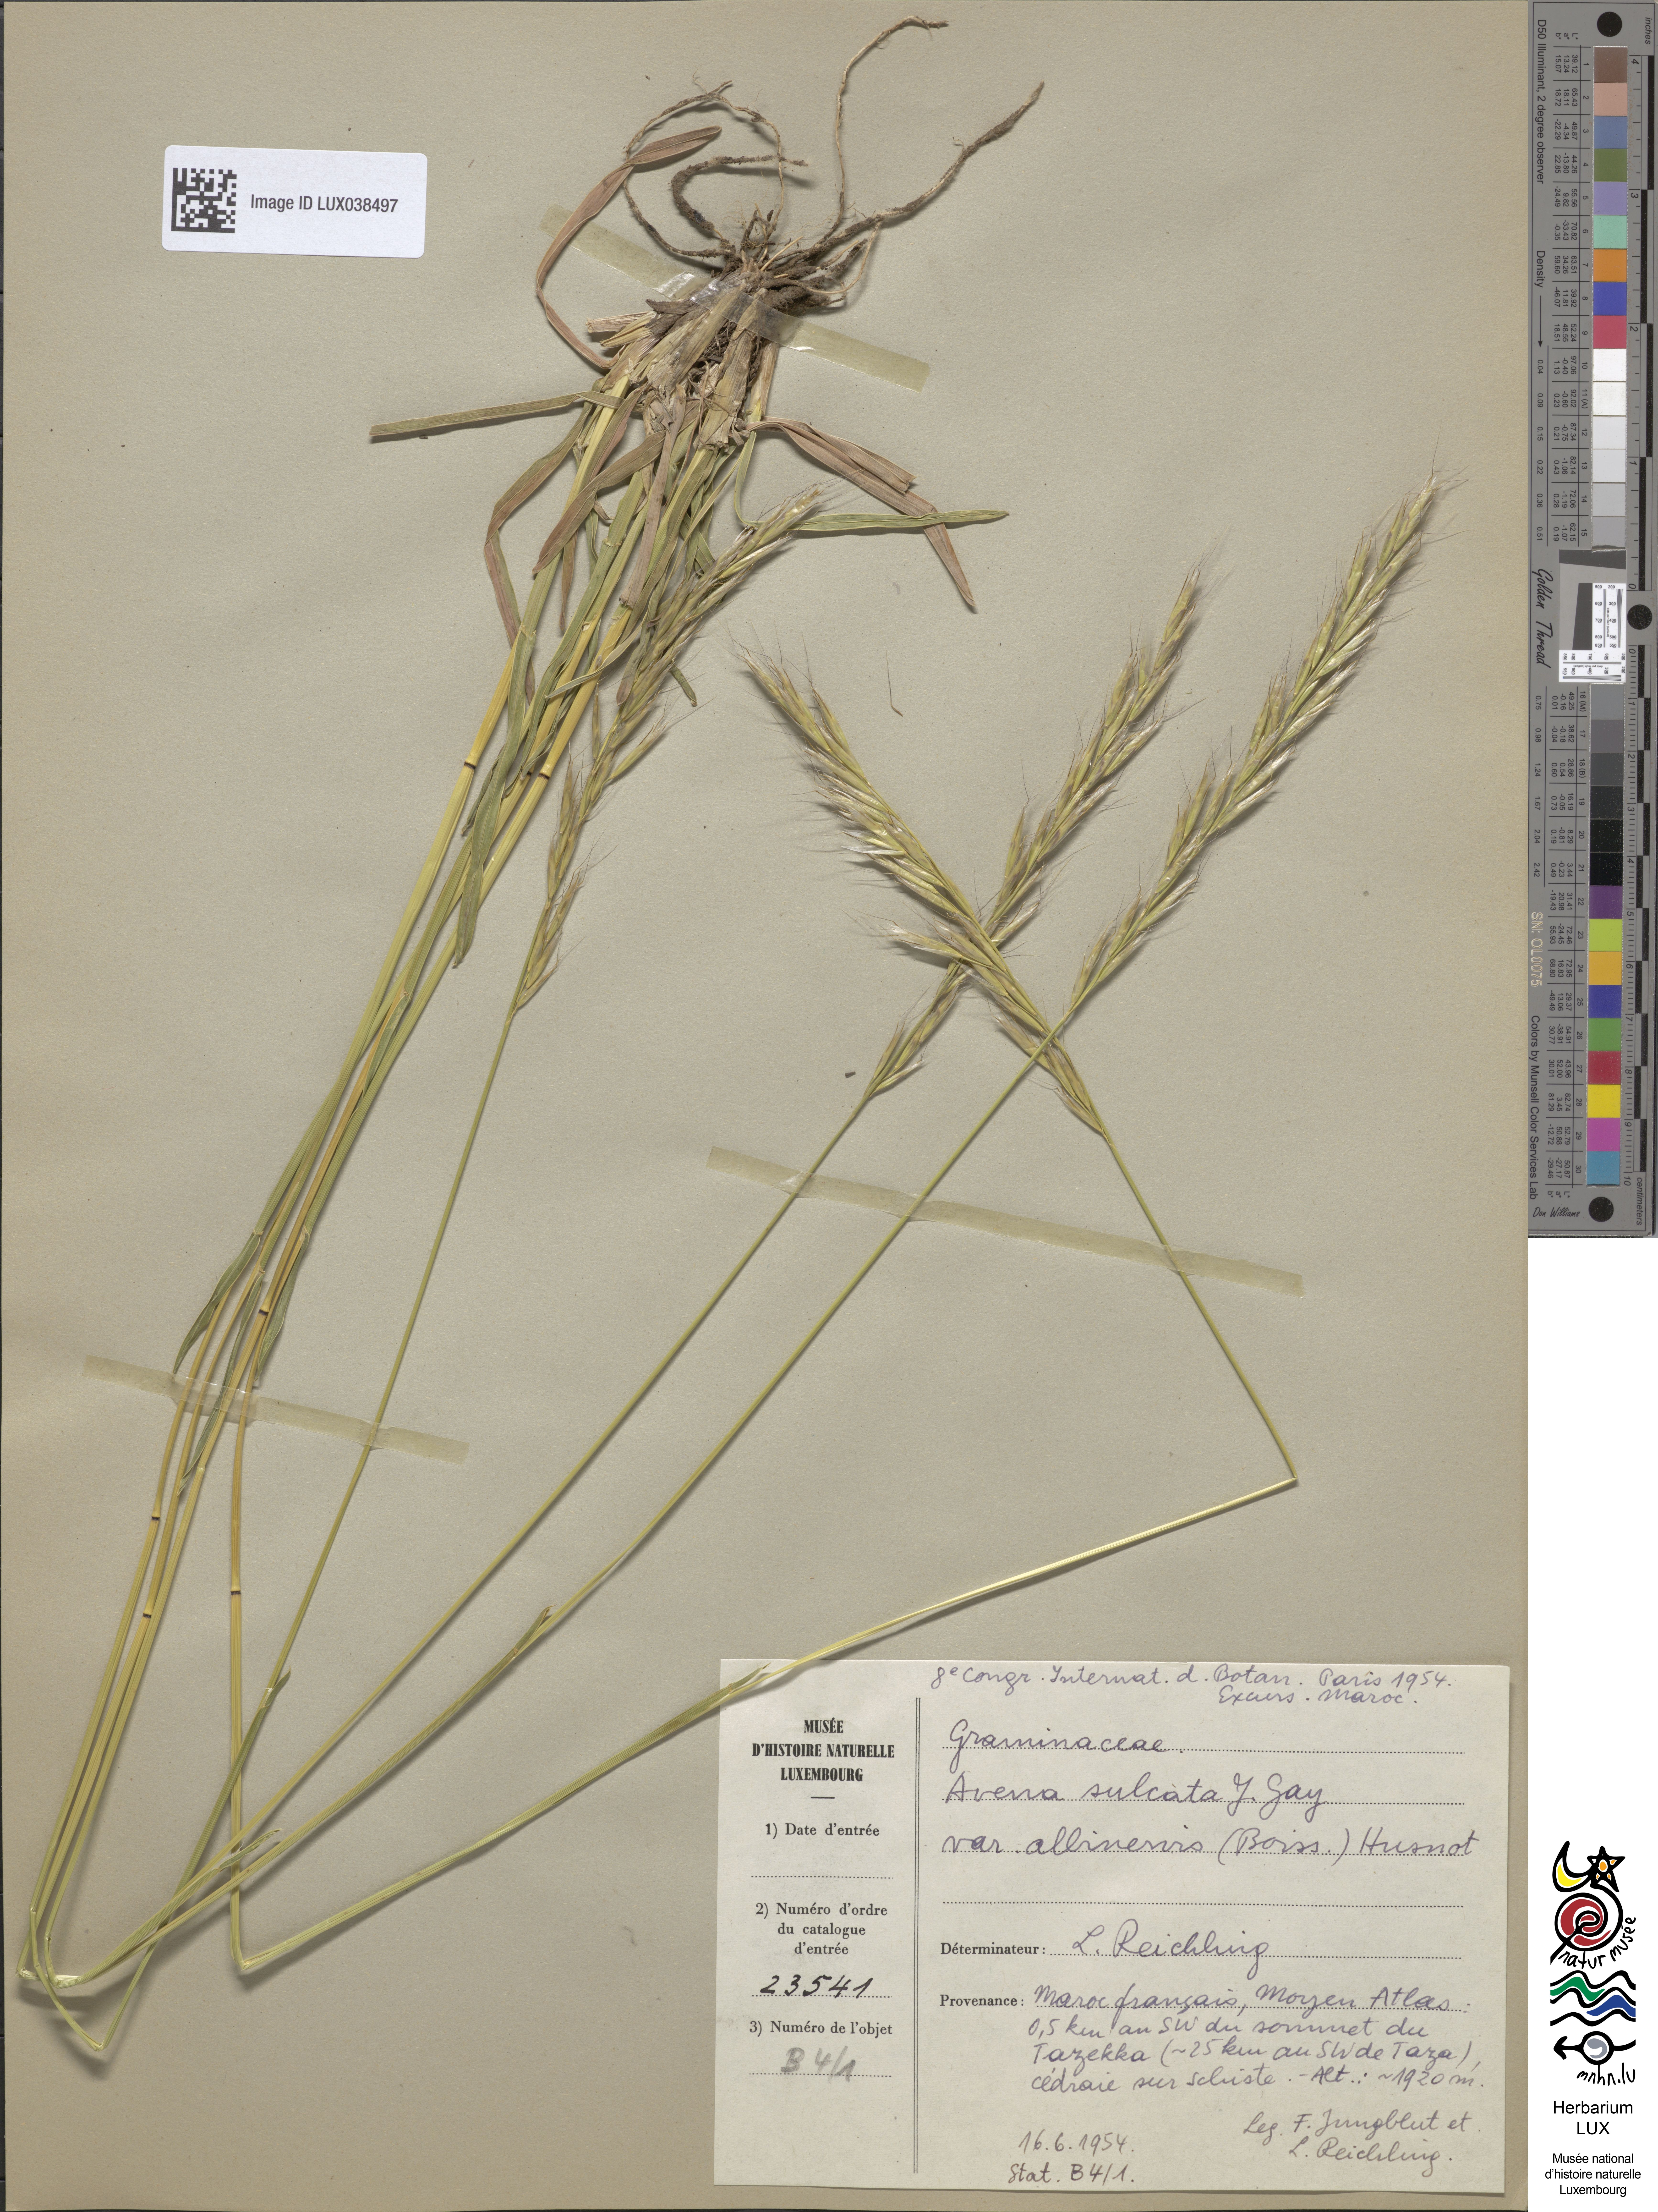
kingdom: Plantae
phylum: Tracheophyta
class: Liliopsida
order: Poales
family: Poaceae
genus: Helictochloa
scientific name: Helictochloa albinervis
